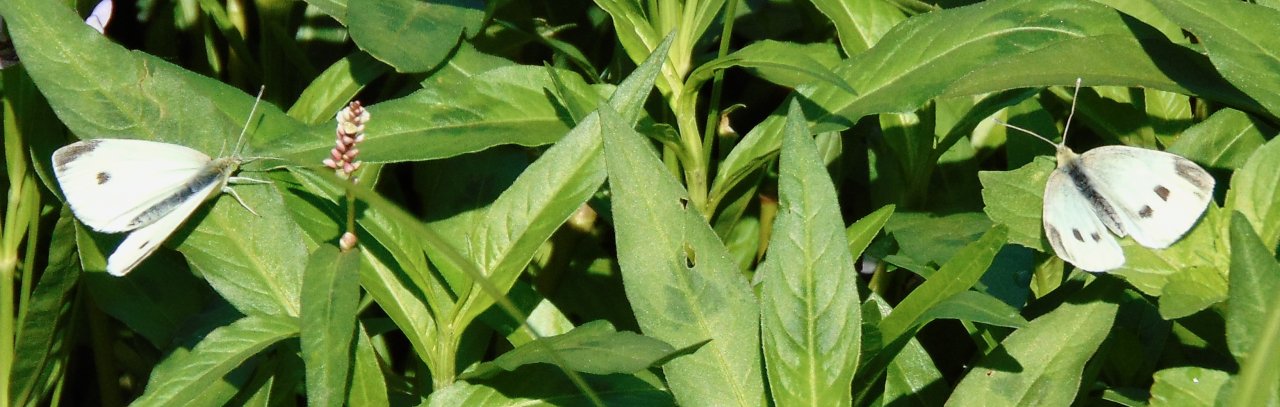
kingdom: Animalia
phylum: Arthropoda
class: Insecta
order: Lepidoptera
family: Pieridae
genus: Pieris
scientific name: Pieris rapae
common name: Cabbage White
